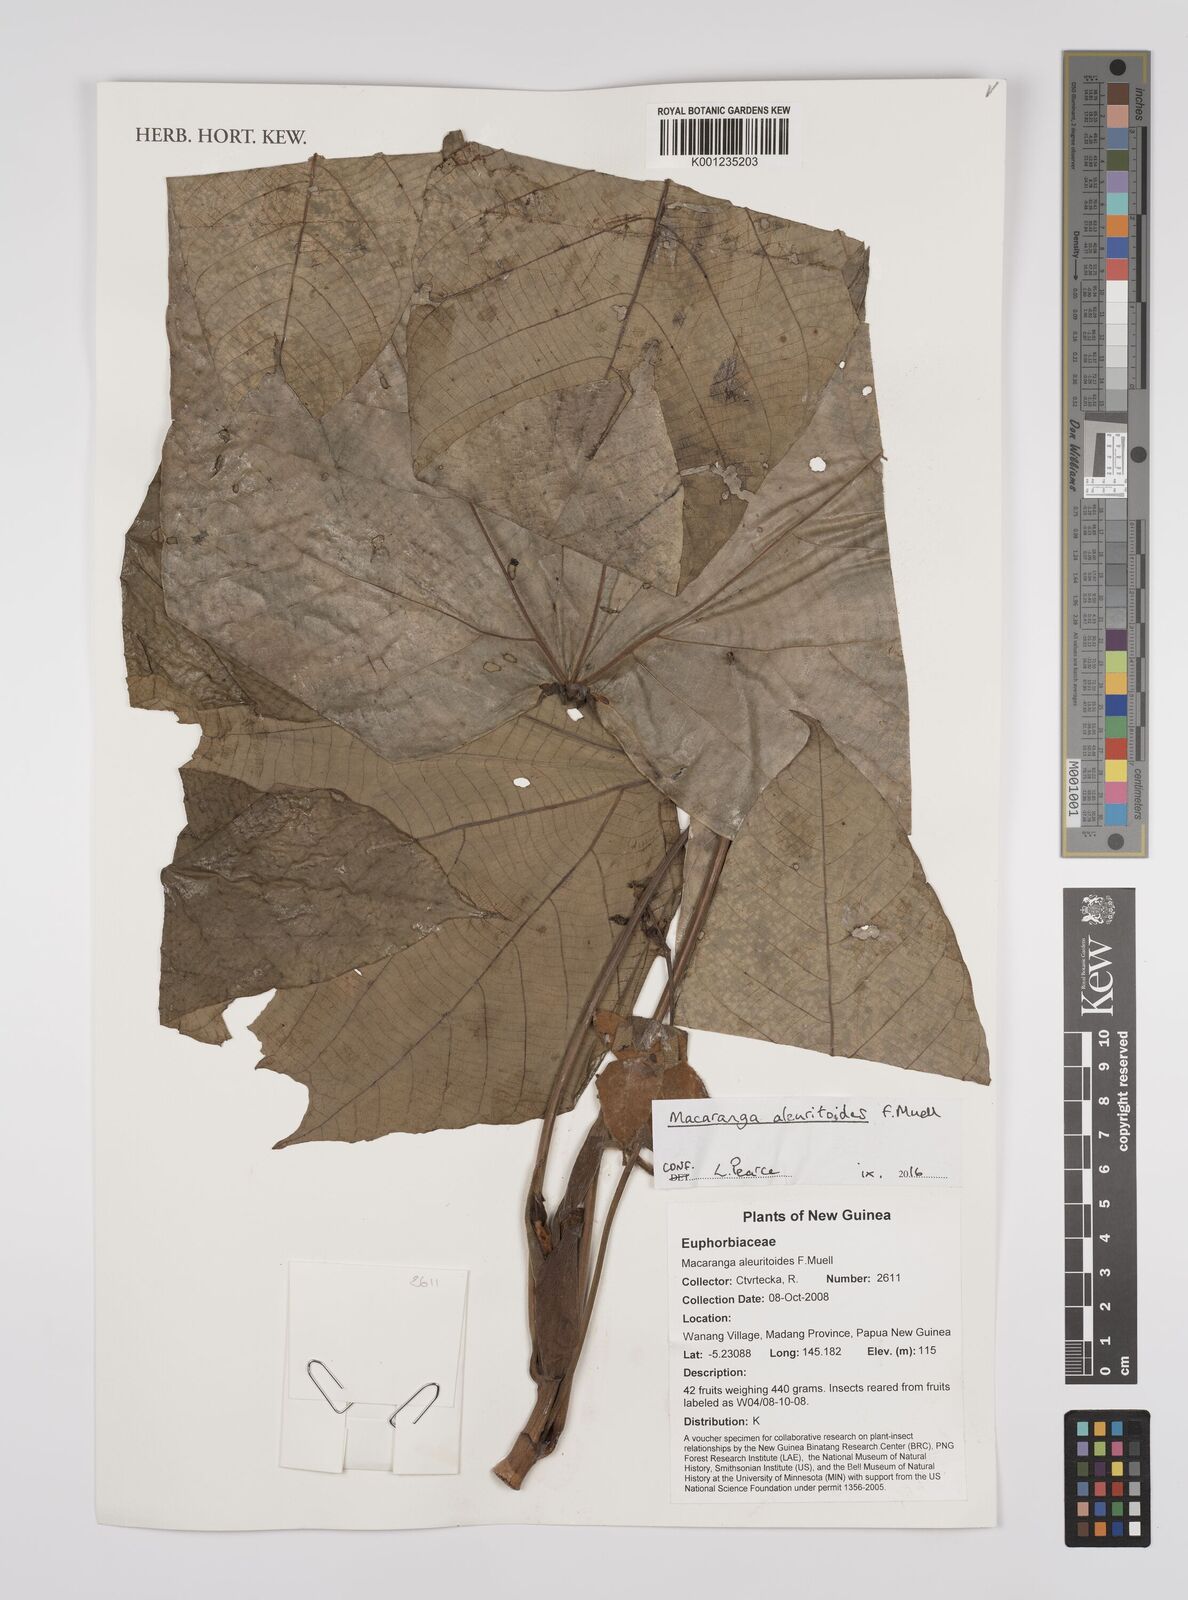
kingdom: Plantae
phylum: Tracheophyta
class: Magnoliopsida
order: Malpighiales
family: Euphorbiaceae
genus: Macaranga
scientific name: Macaranga aleuritoides
